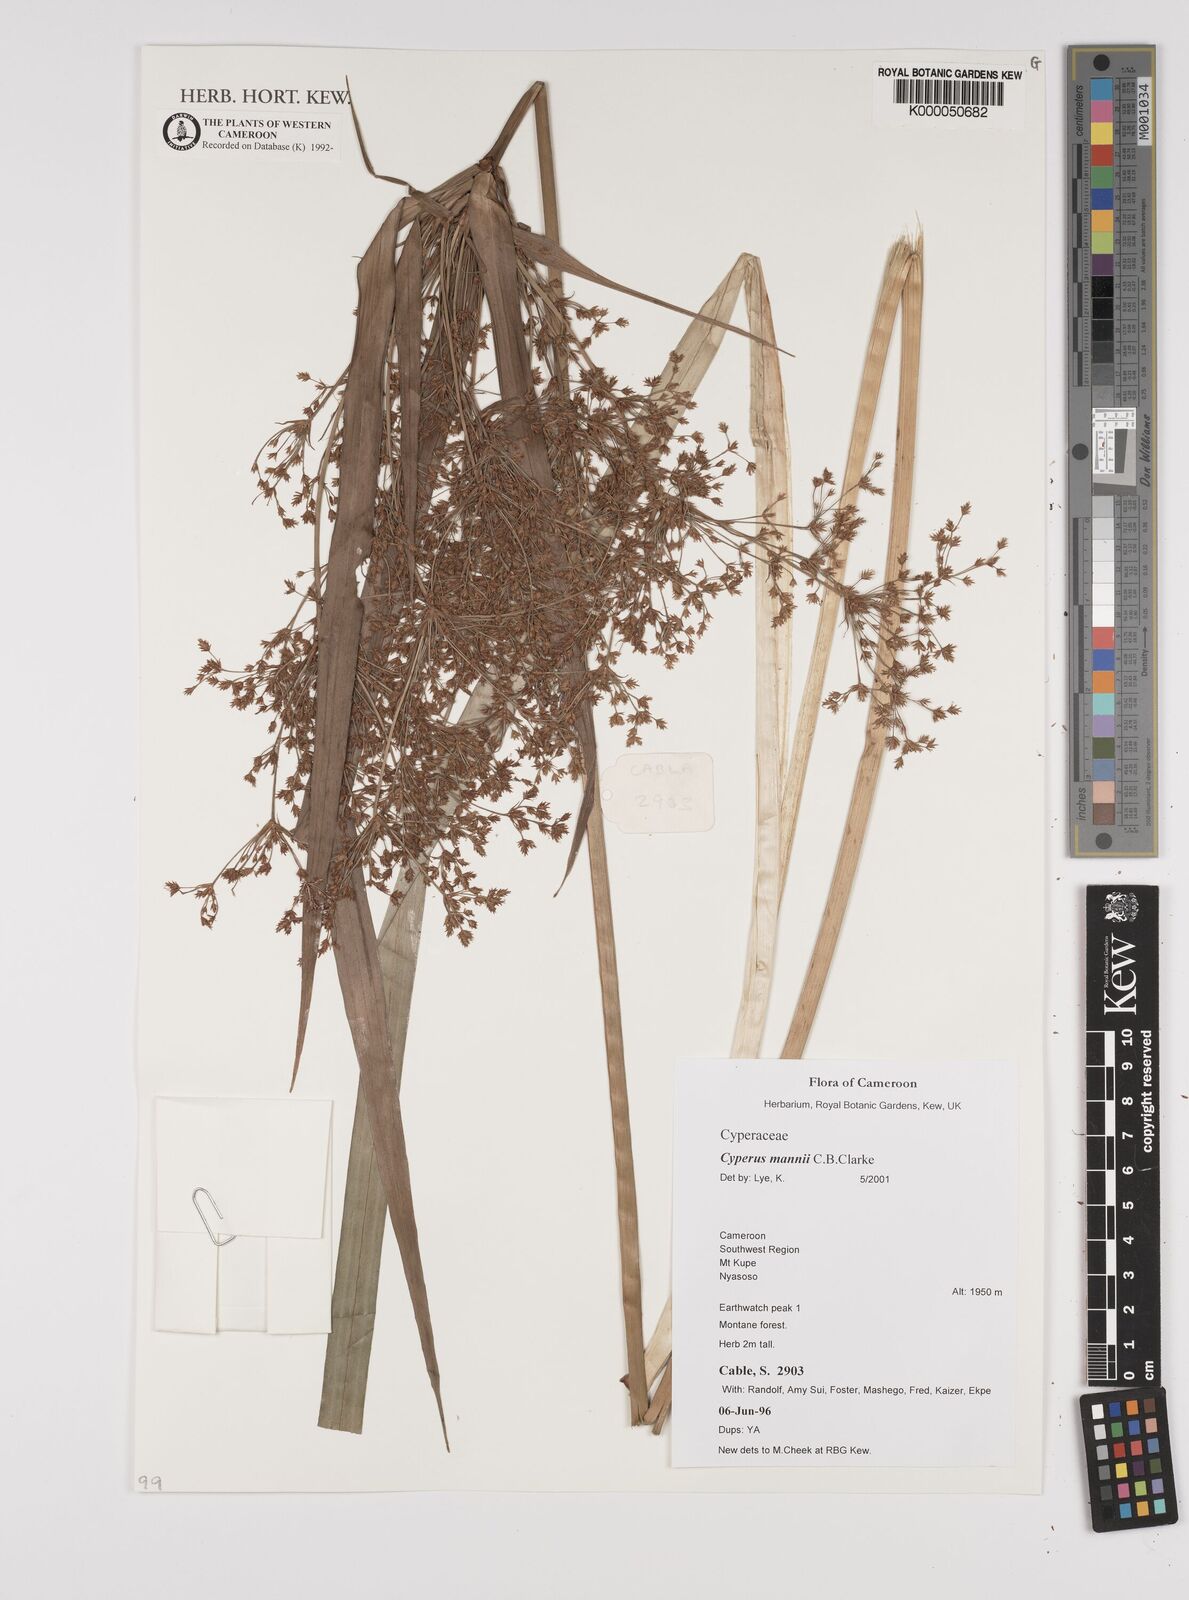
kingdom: Plantae
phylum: Tracheophyta
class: Liliopsida
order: Poales
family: Cyperaceae
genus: Cyperus
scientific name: Cyperus baronii
